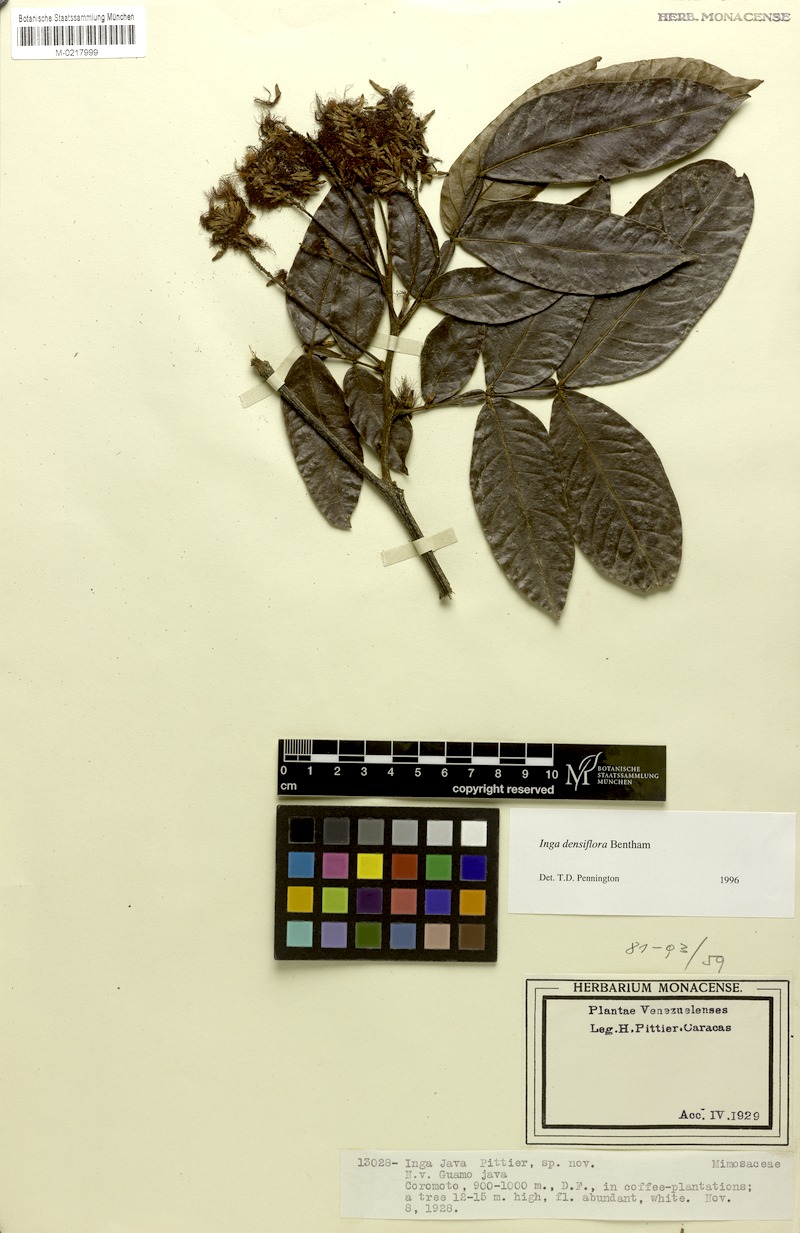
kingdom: Plantae
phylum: Tracheophyta
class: Magnoliopsida
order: Fabales
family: Fabaceae
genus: Inga
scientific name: Inga densiflora
